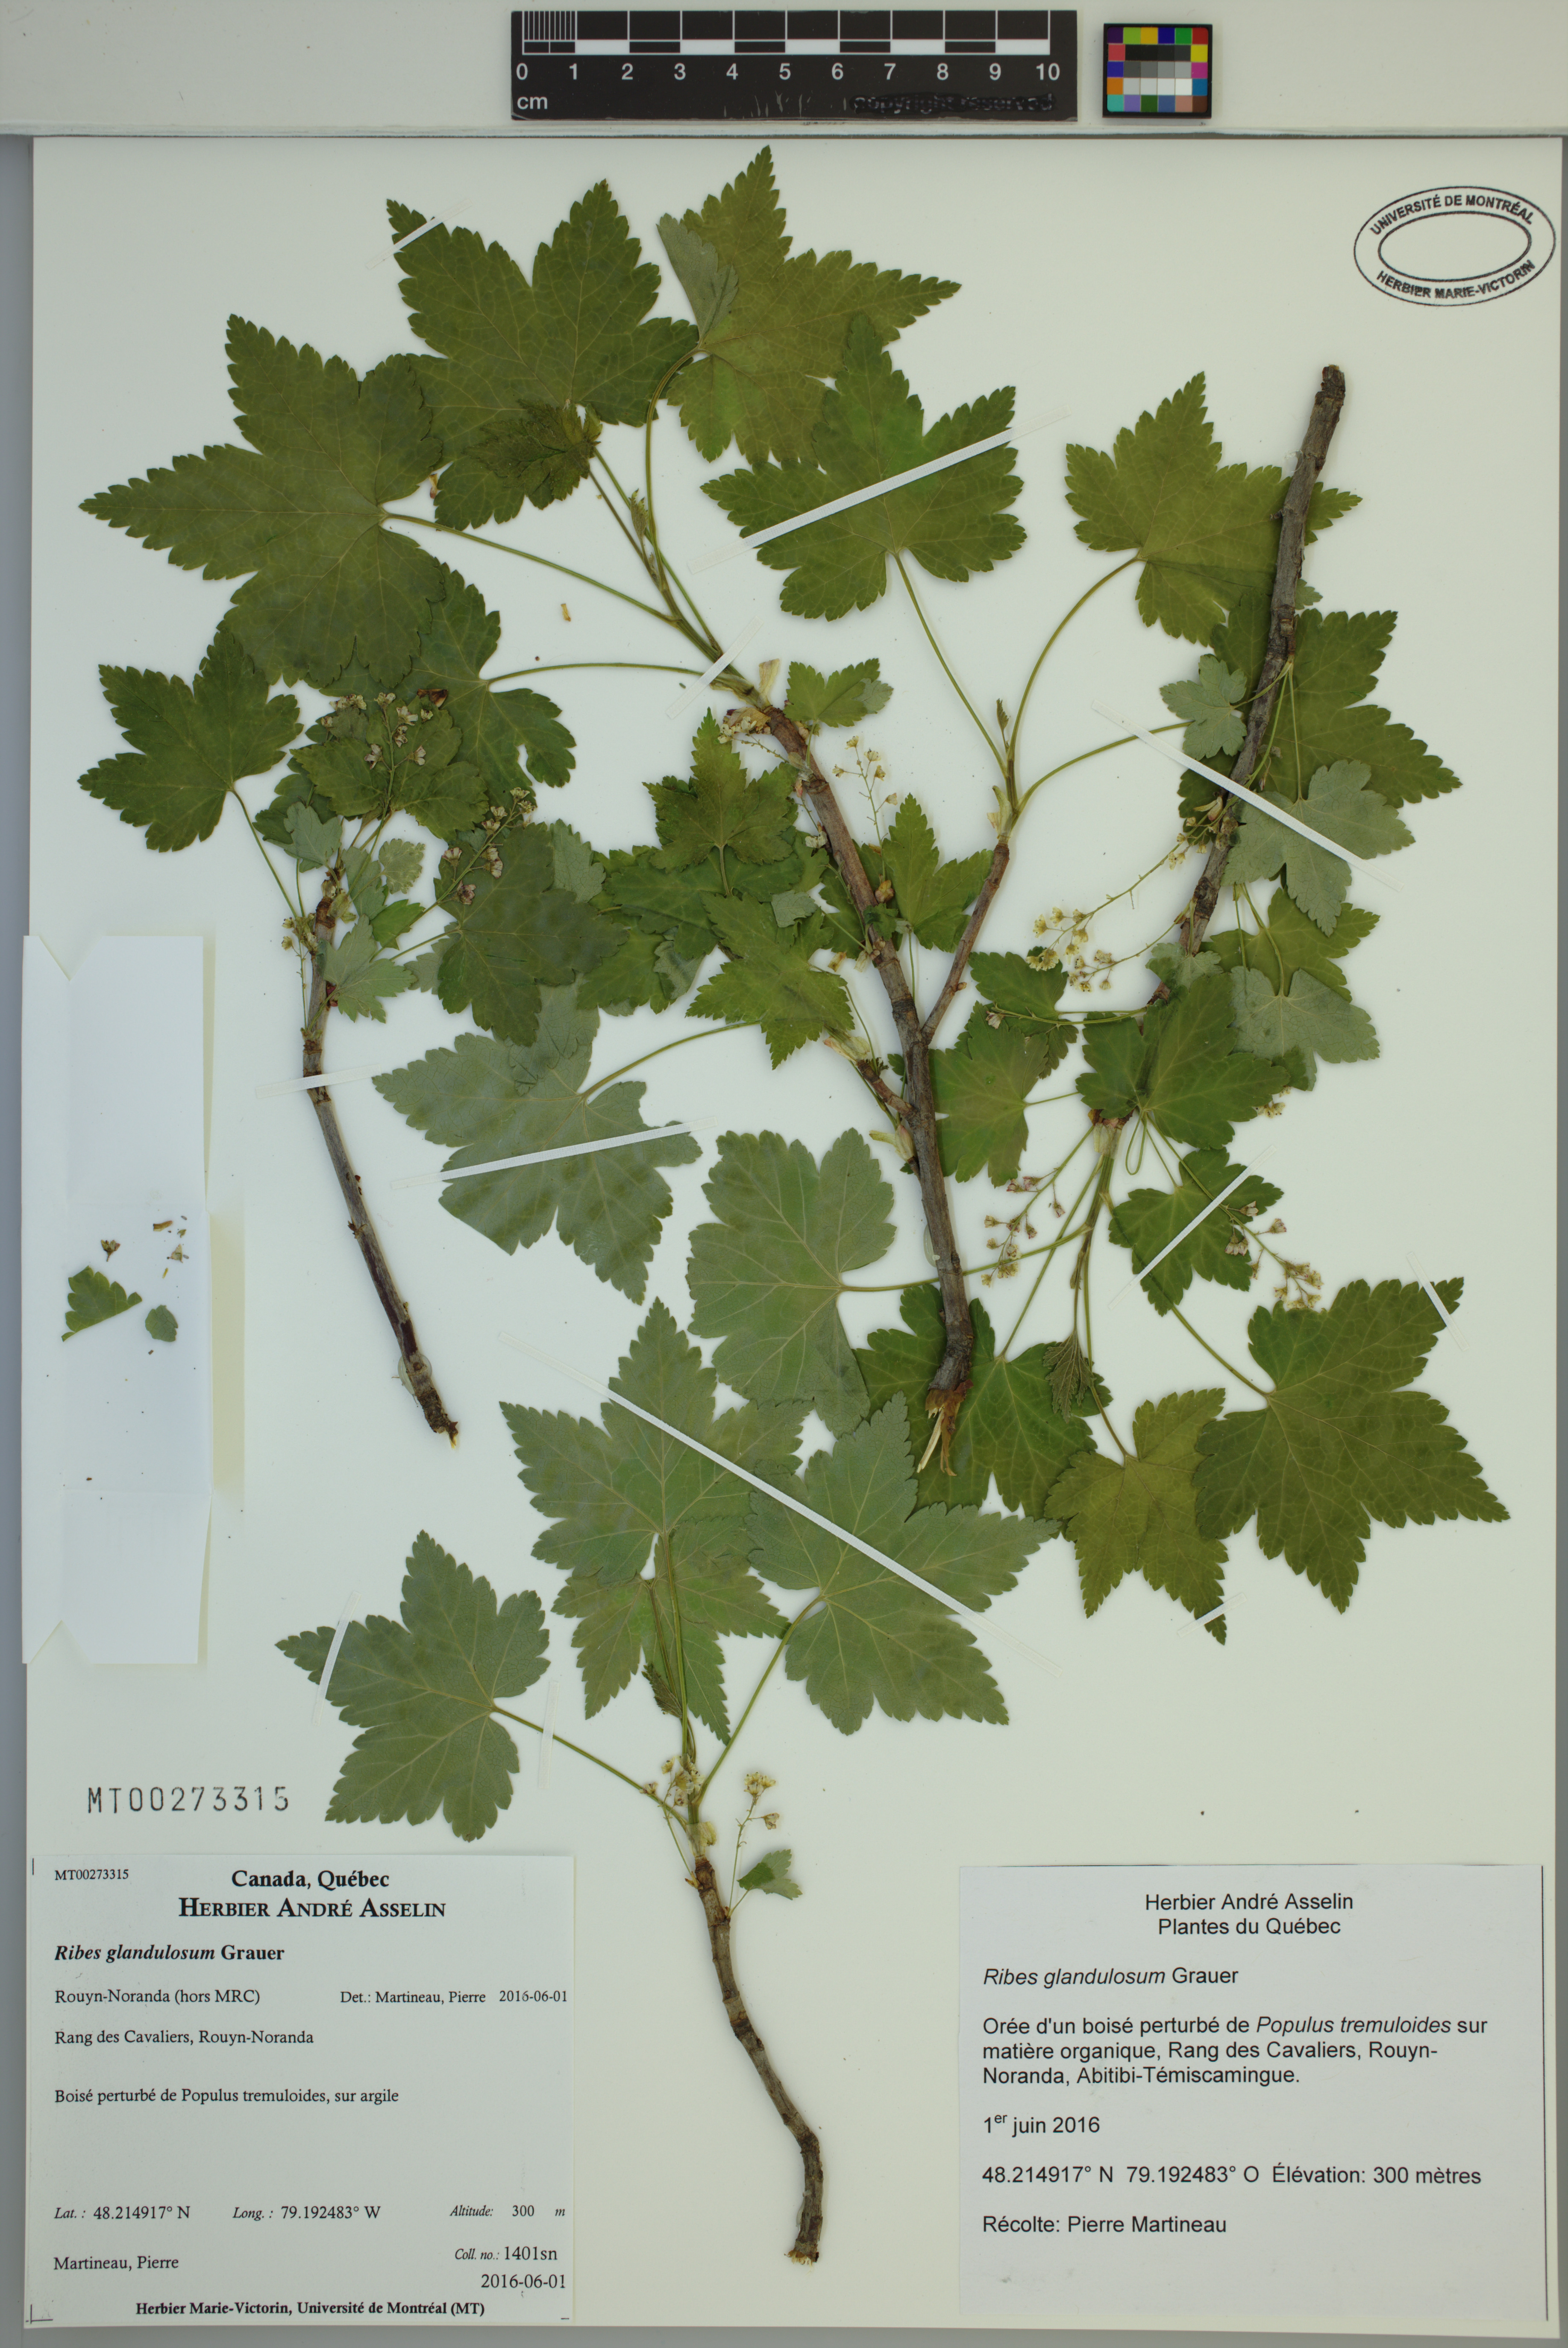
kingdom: Plantae
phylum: Tracheophyta
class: Magnoliopsida
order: Saxifragales
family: Grossulariaceae
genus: Ribes
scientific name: Ribes glandulosum
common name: Skunk currant
